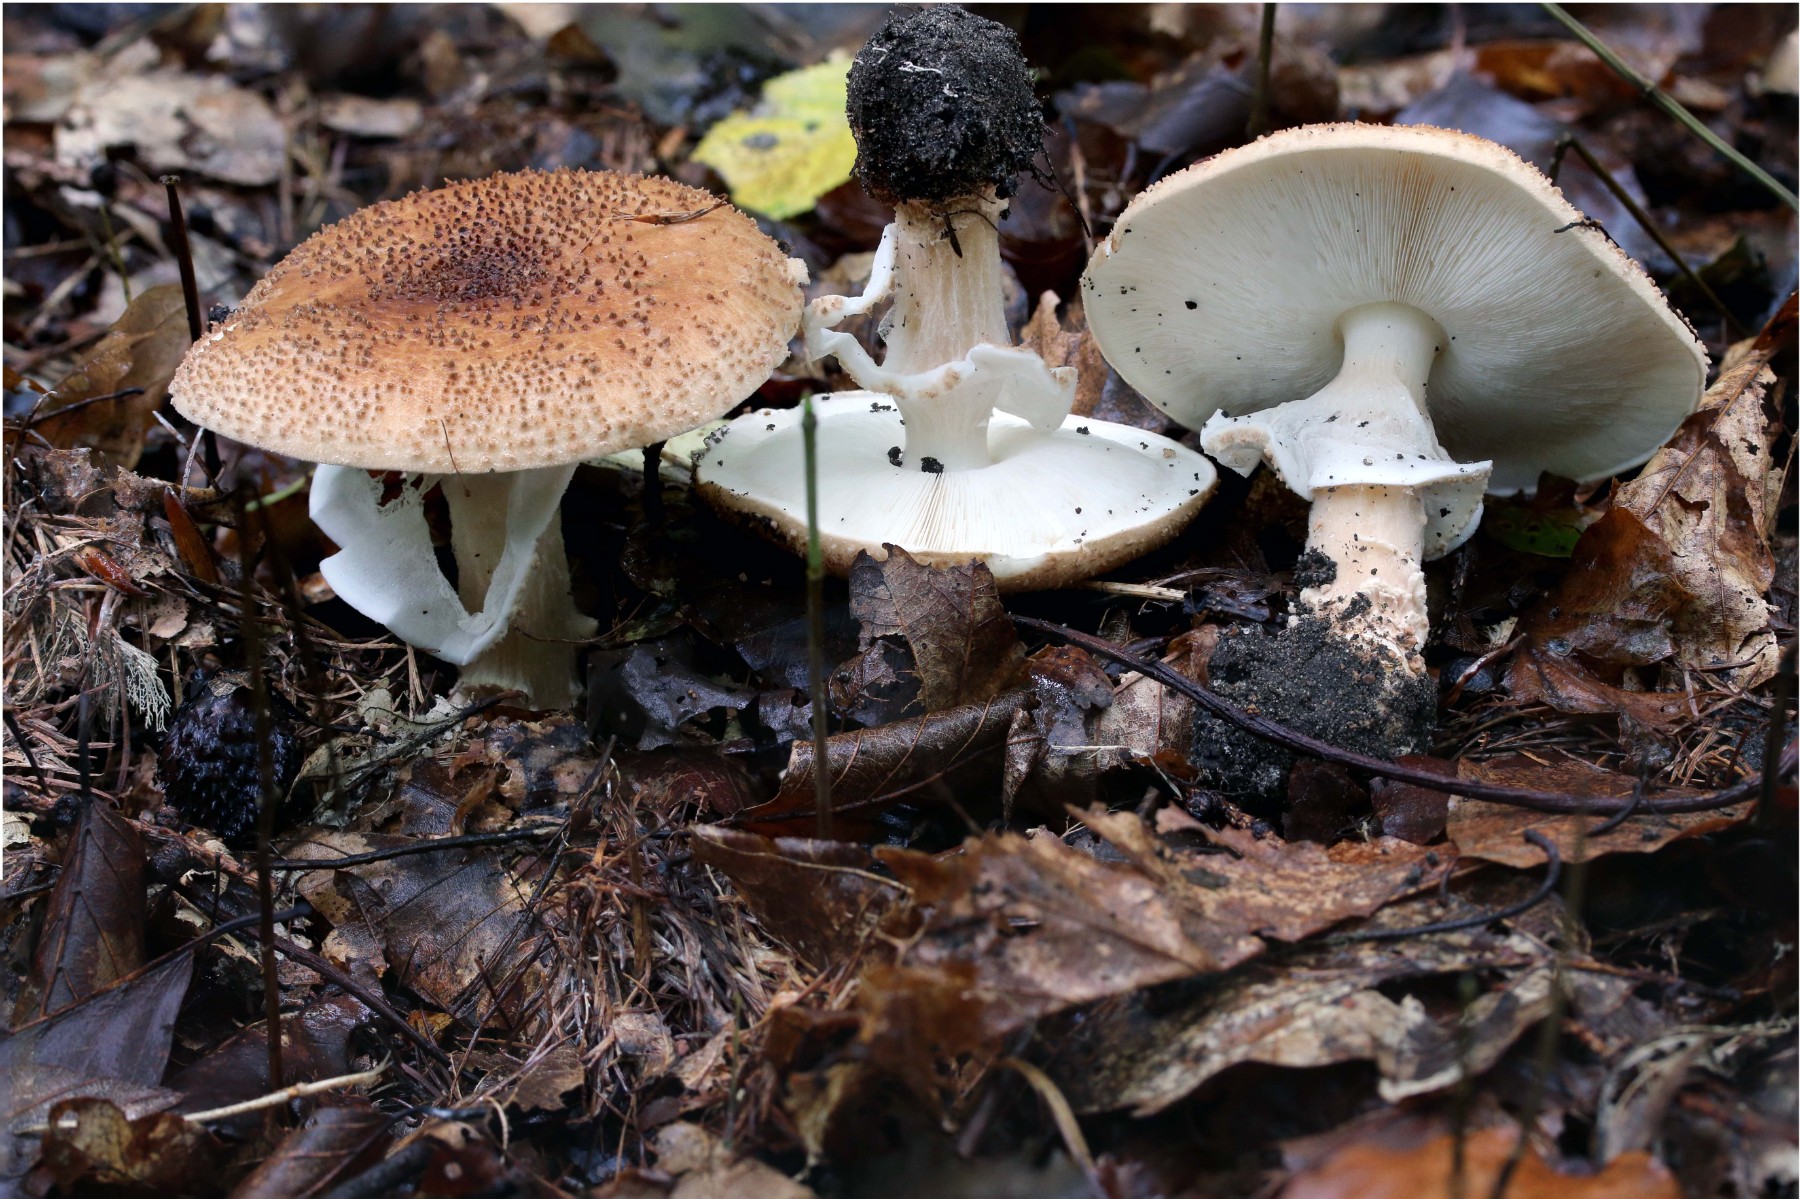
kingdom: Fungi
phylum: Basidiomycota
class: Agaricomycetes
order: Agaricales
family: Agaricaceae
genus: Echinoderma
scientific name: Echinoderma asperum
